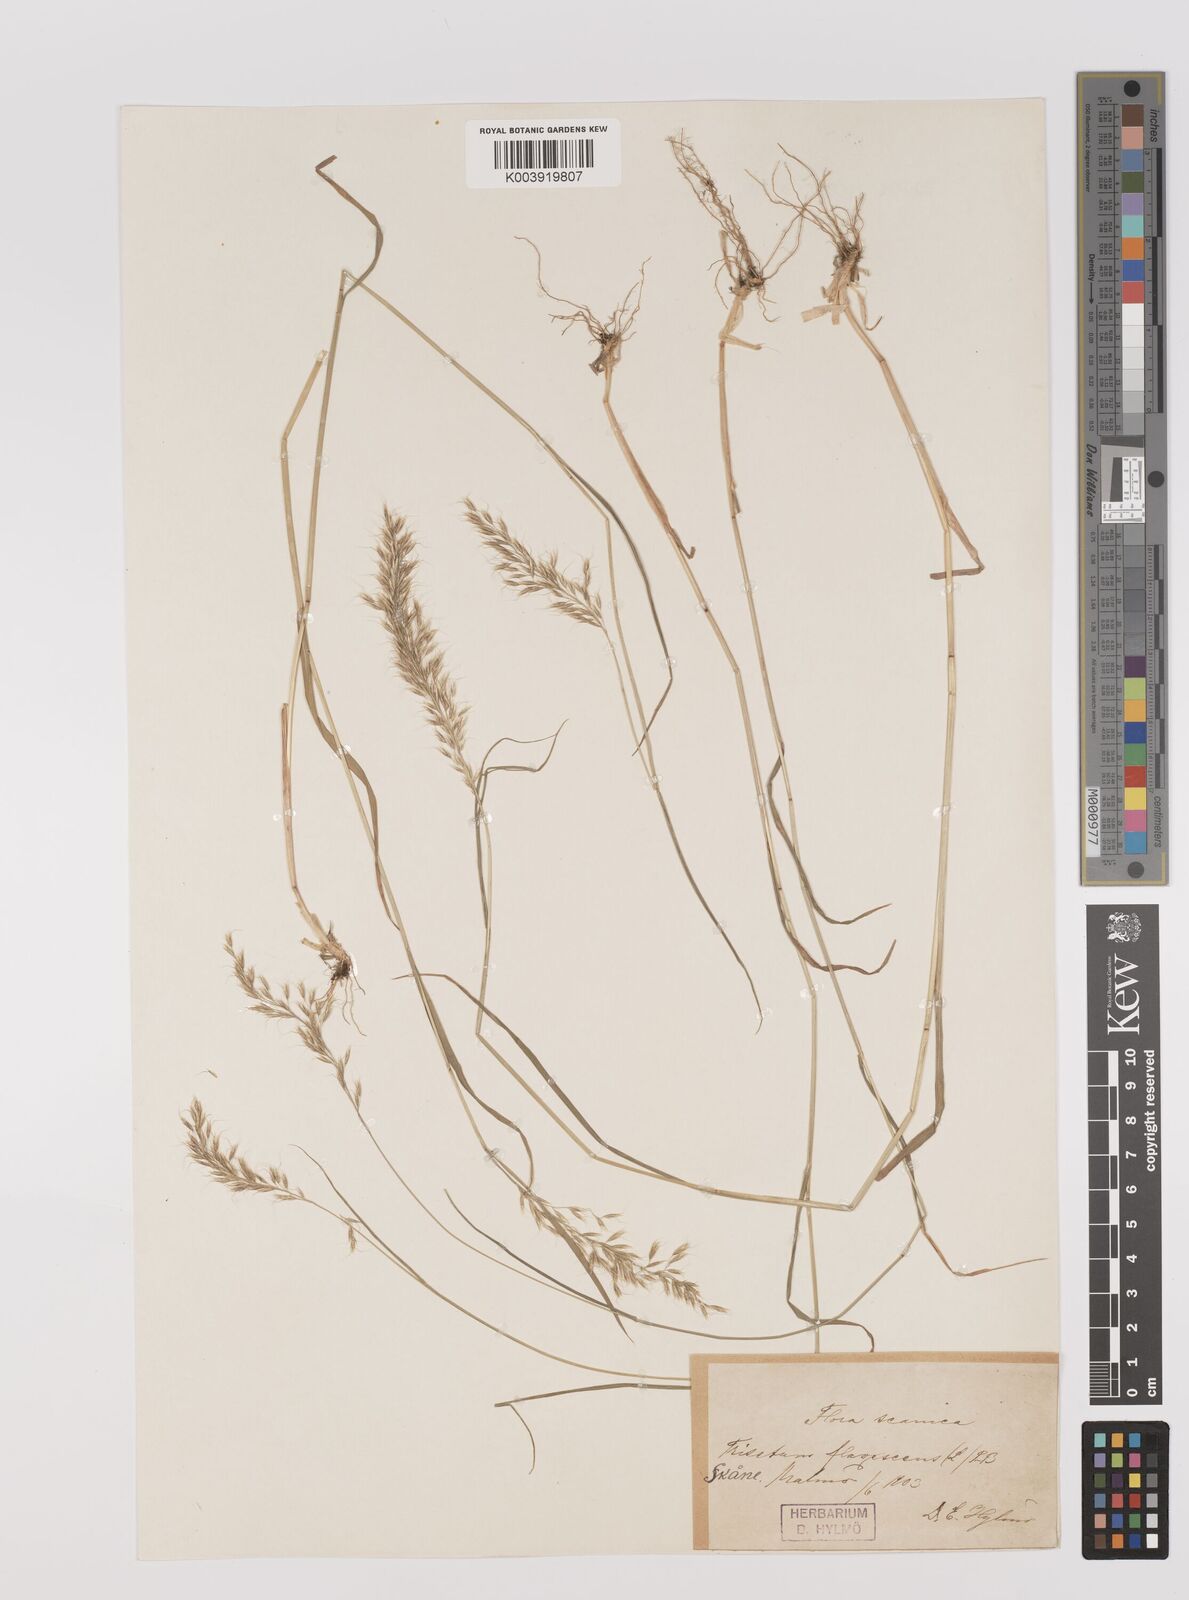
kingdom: Plantae
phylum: Tracheophyta
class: Liliopsida
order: Poales
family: Poaceae
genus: Trisetum
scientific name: Trisetum flavescens
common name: Yellow oat-grass
